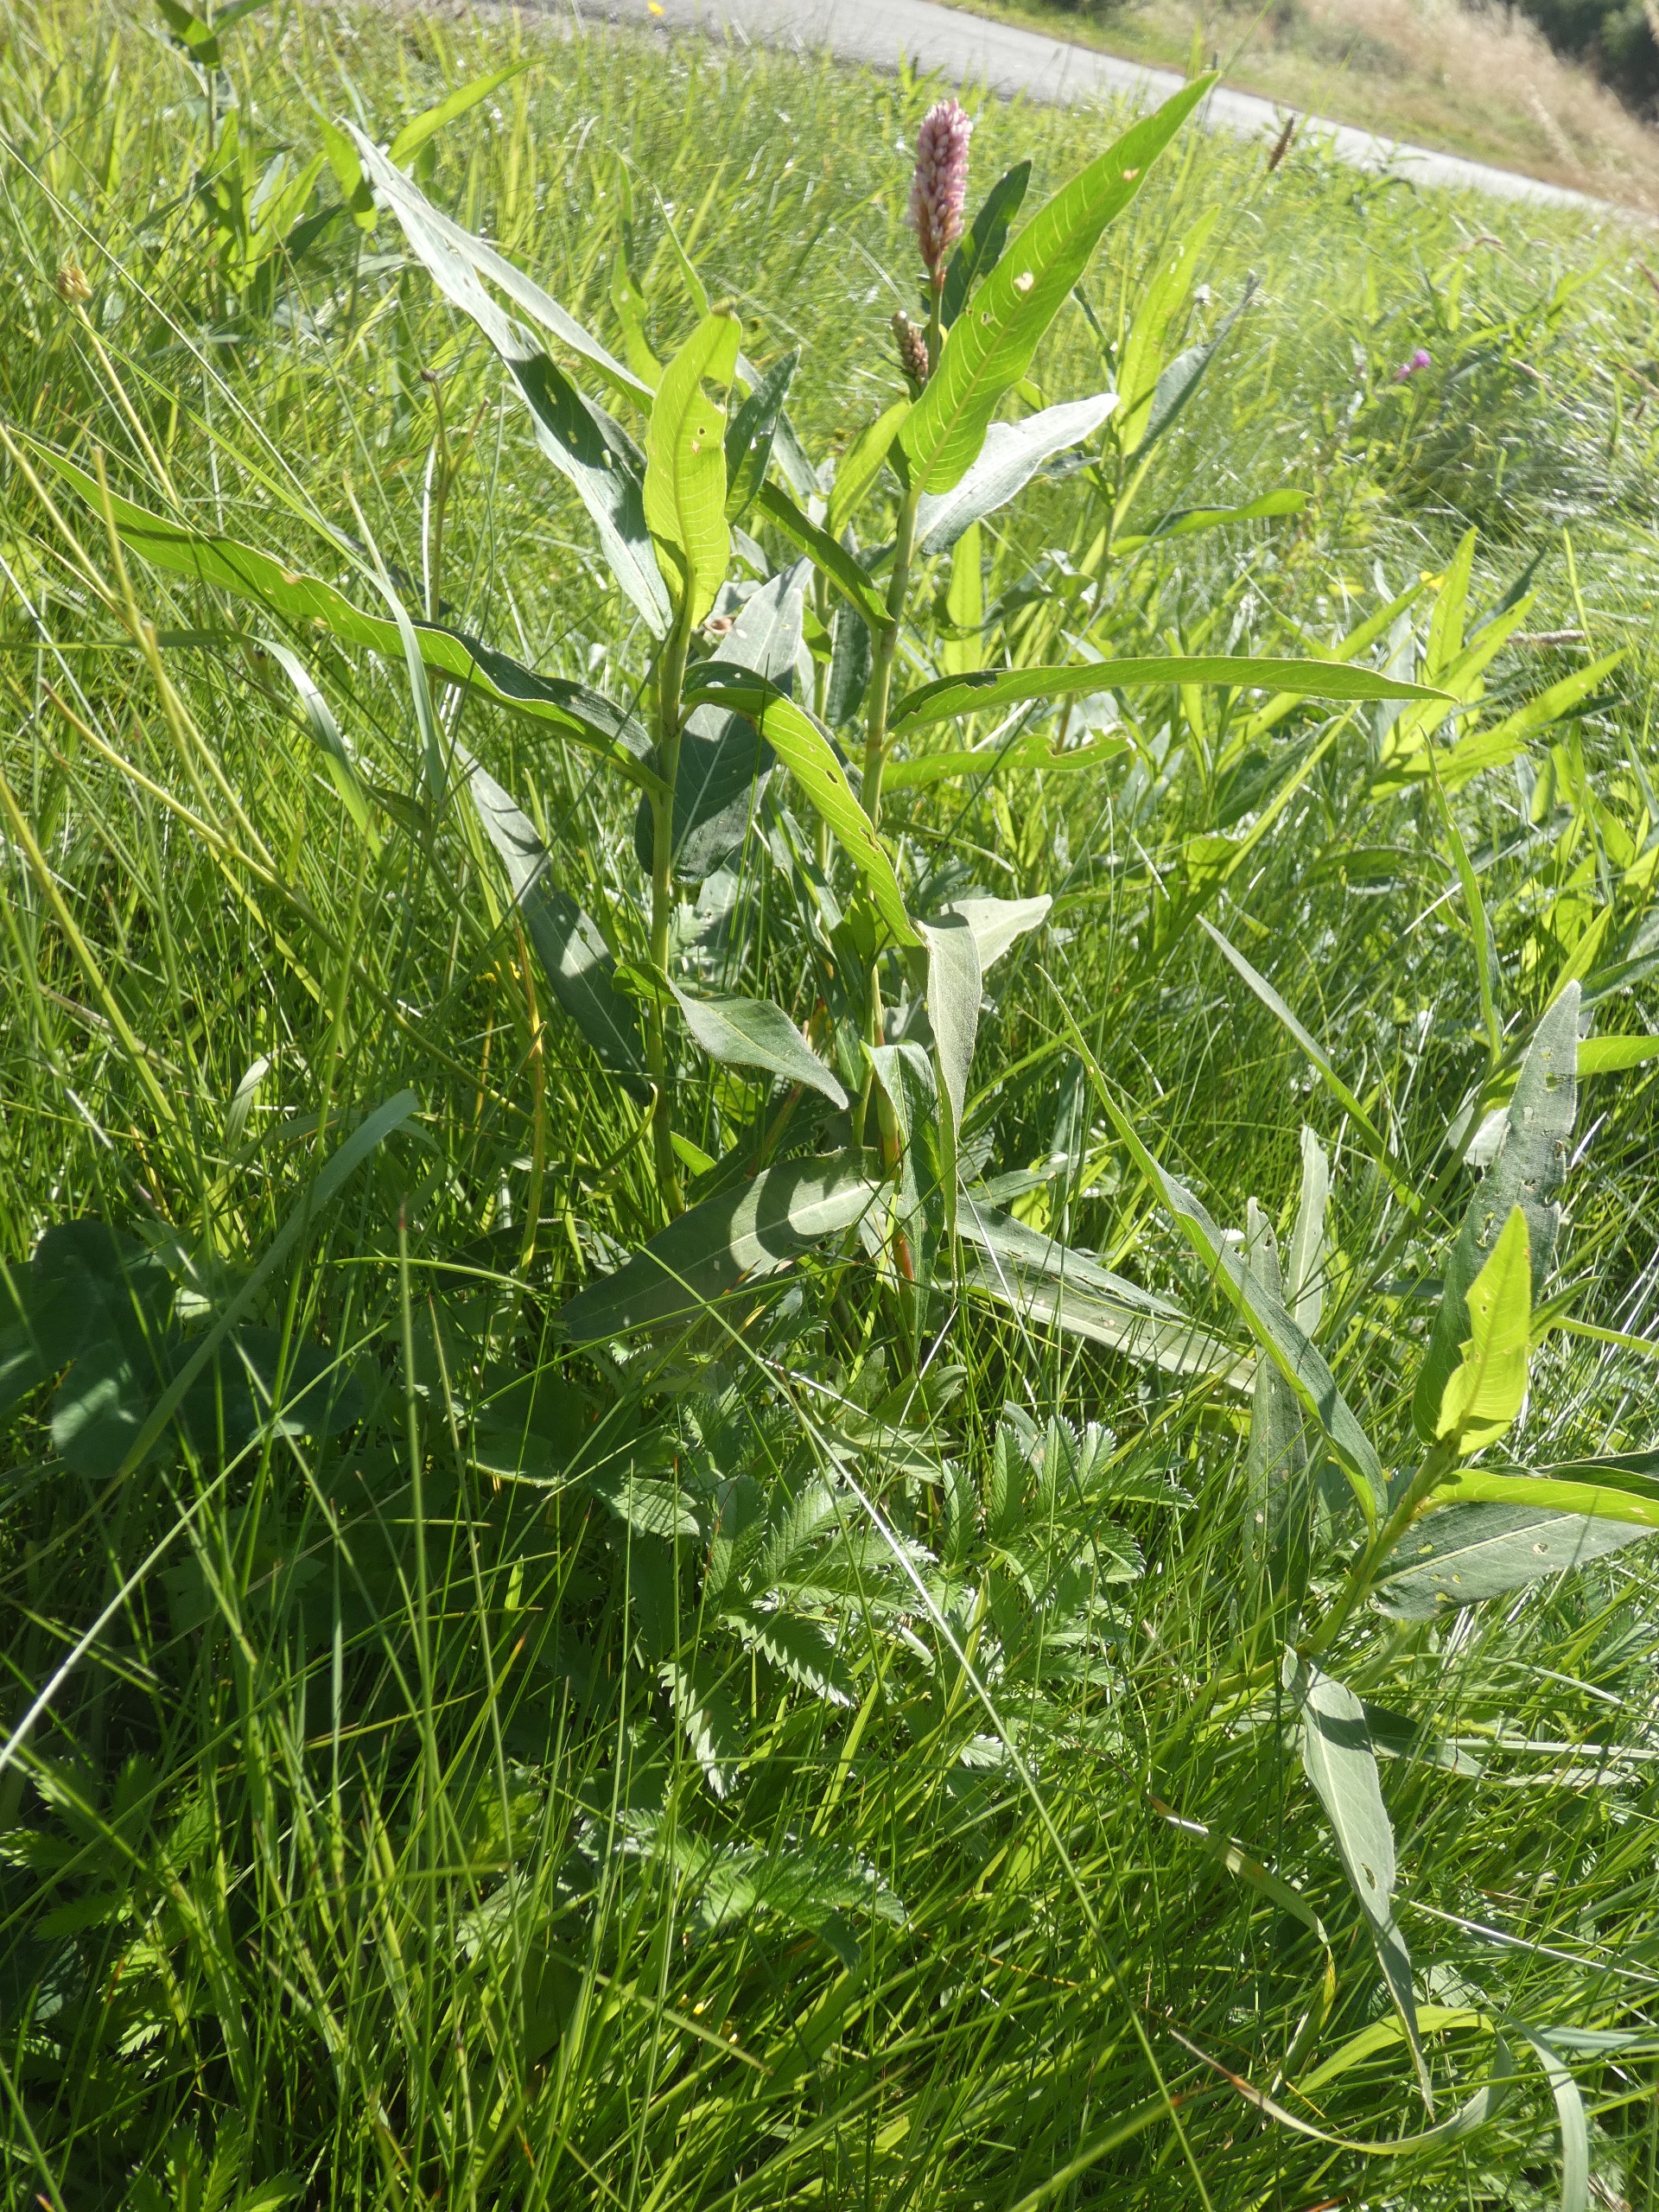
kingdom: Plantae
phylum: Tracheophyta
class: Magnoliopsida
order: Caryophyllales
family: Polygonaceae
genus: Persicaria
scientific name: Persicaria amphibia
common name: Vand-pileurt
